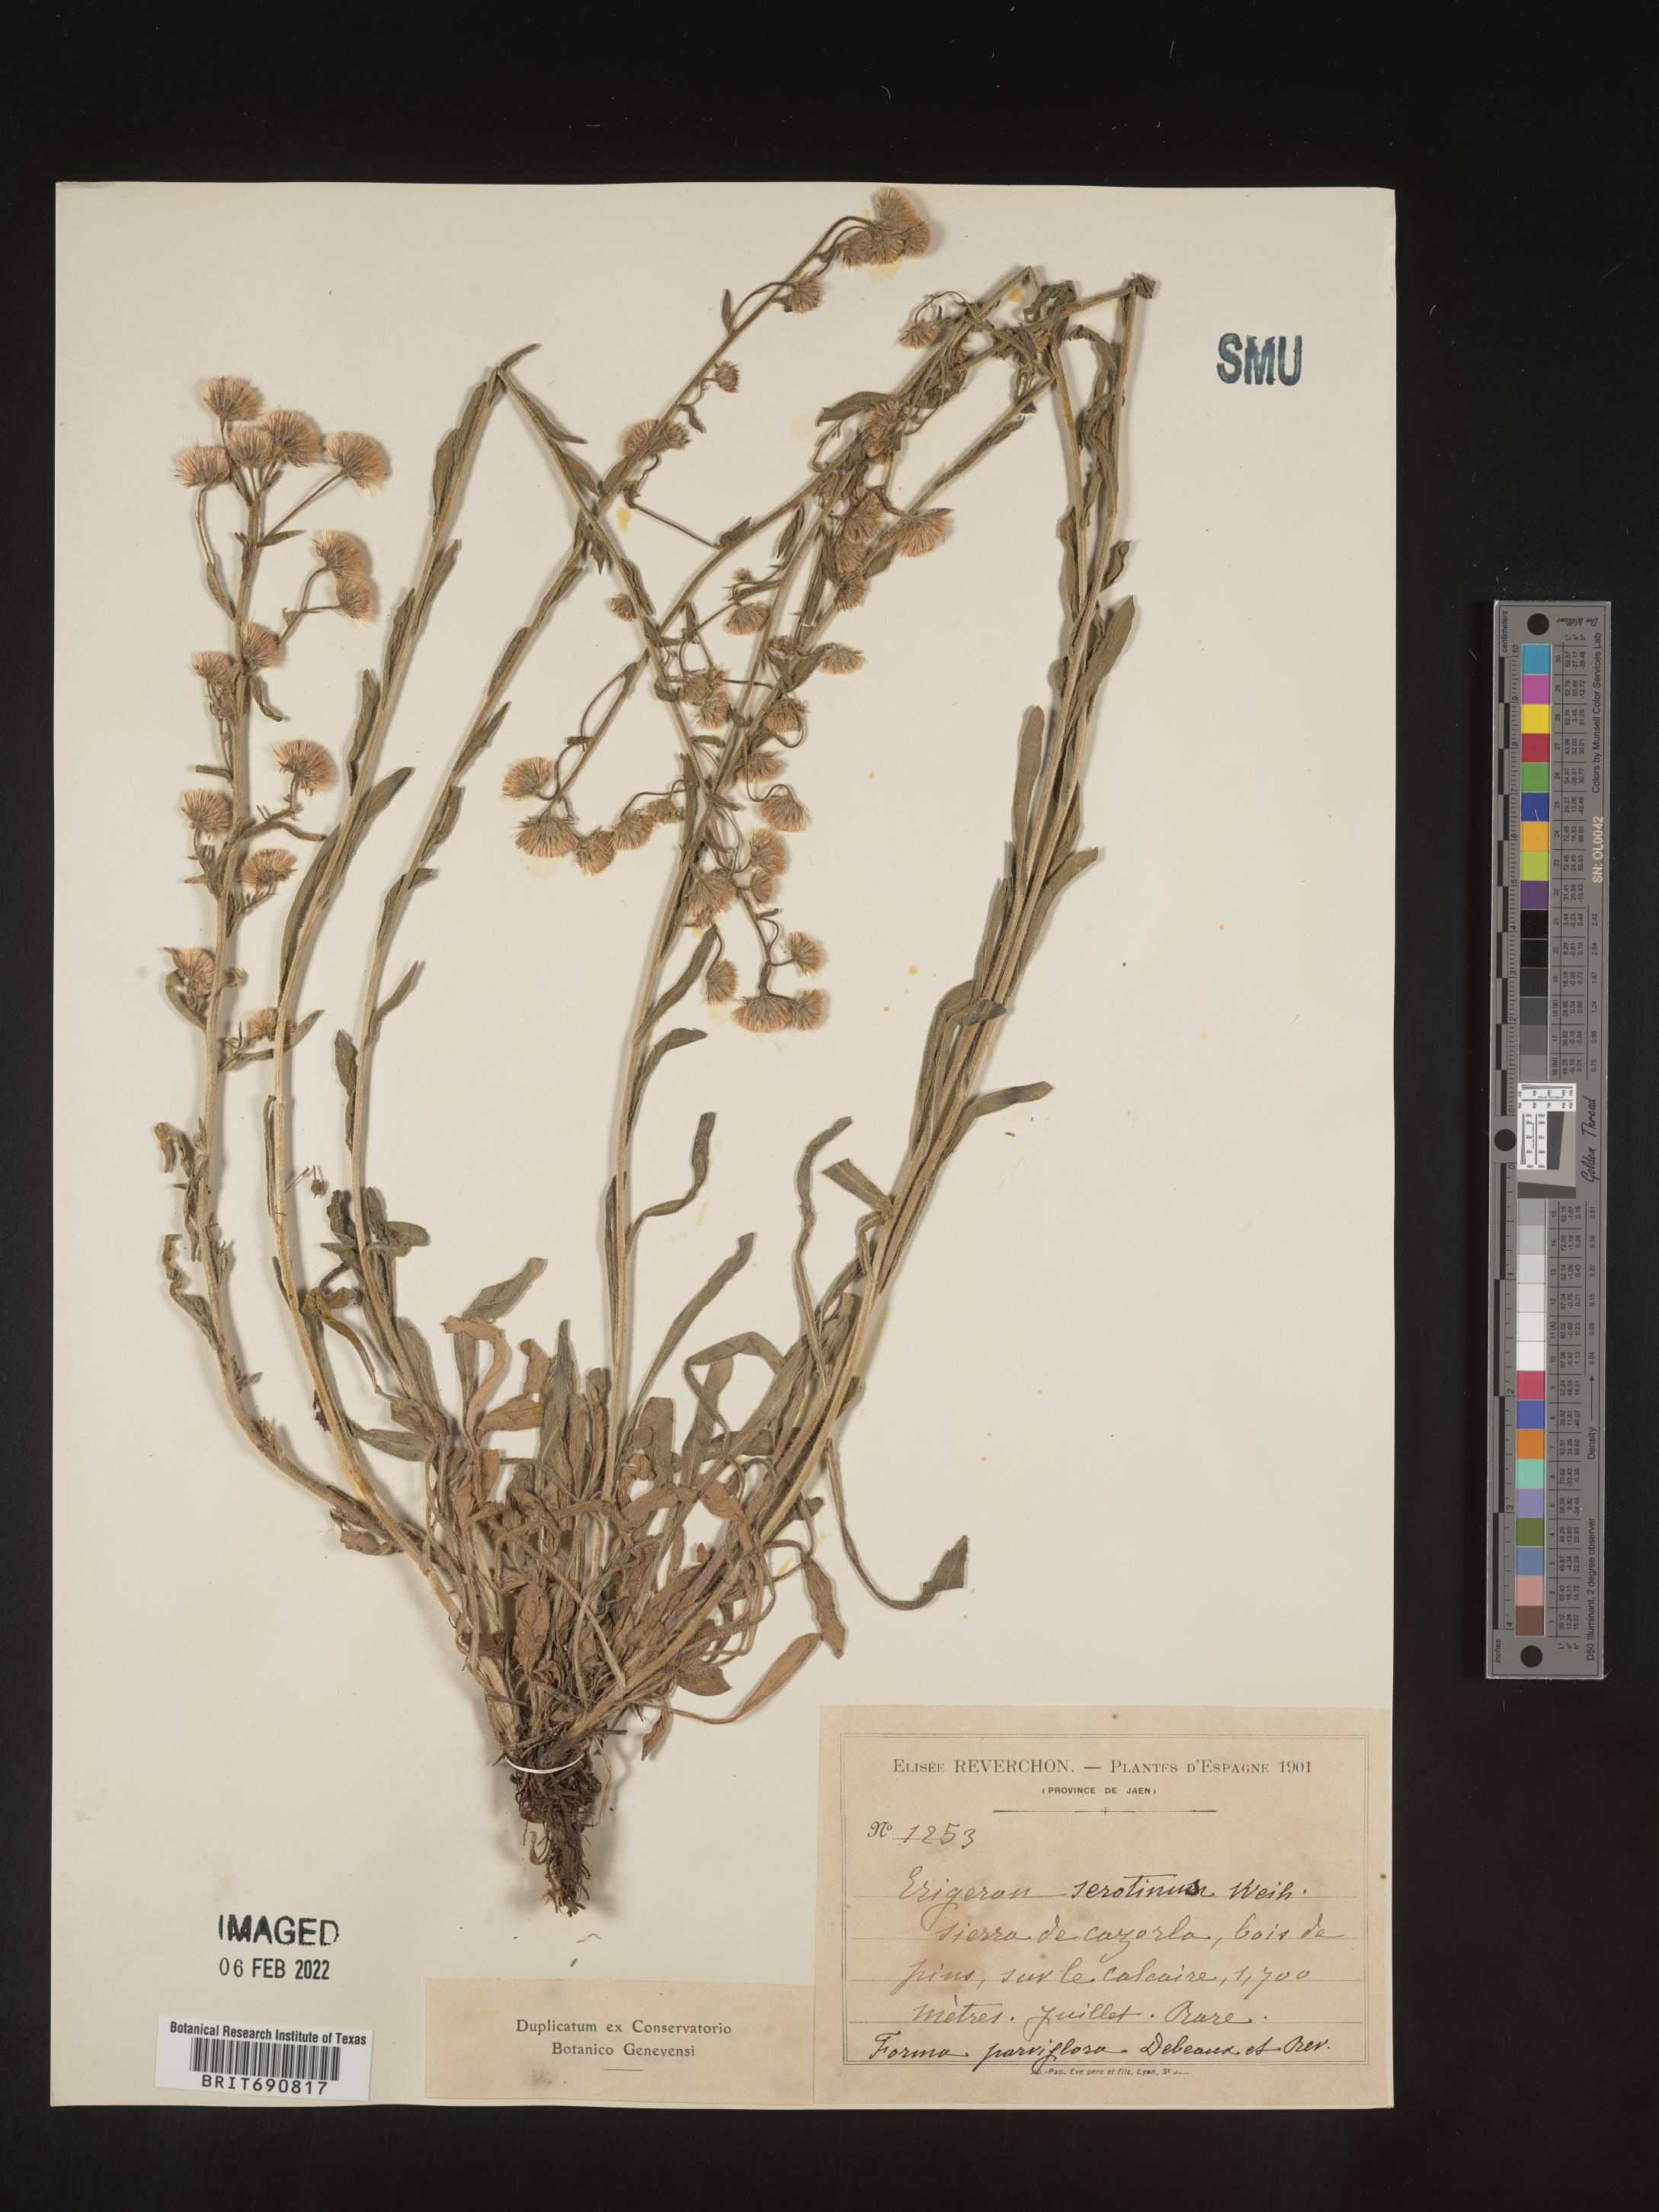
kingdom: Plantae
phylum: Tracheophyta
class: Magnoliopsida
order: Asterales
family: Asteraceae
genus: Conyza
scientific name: Conyza
